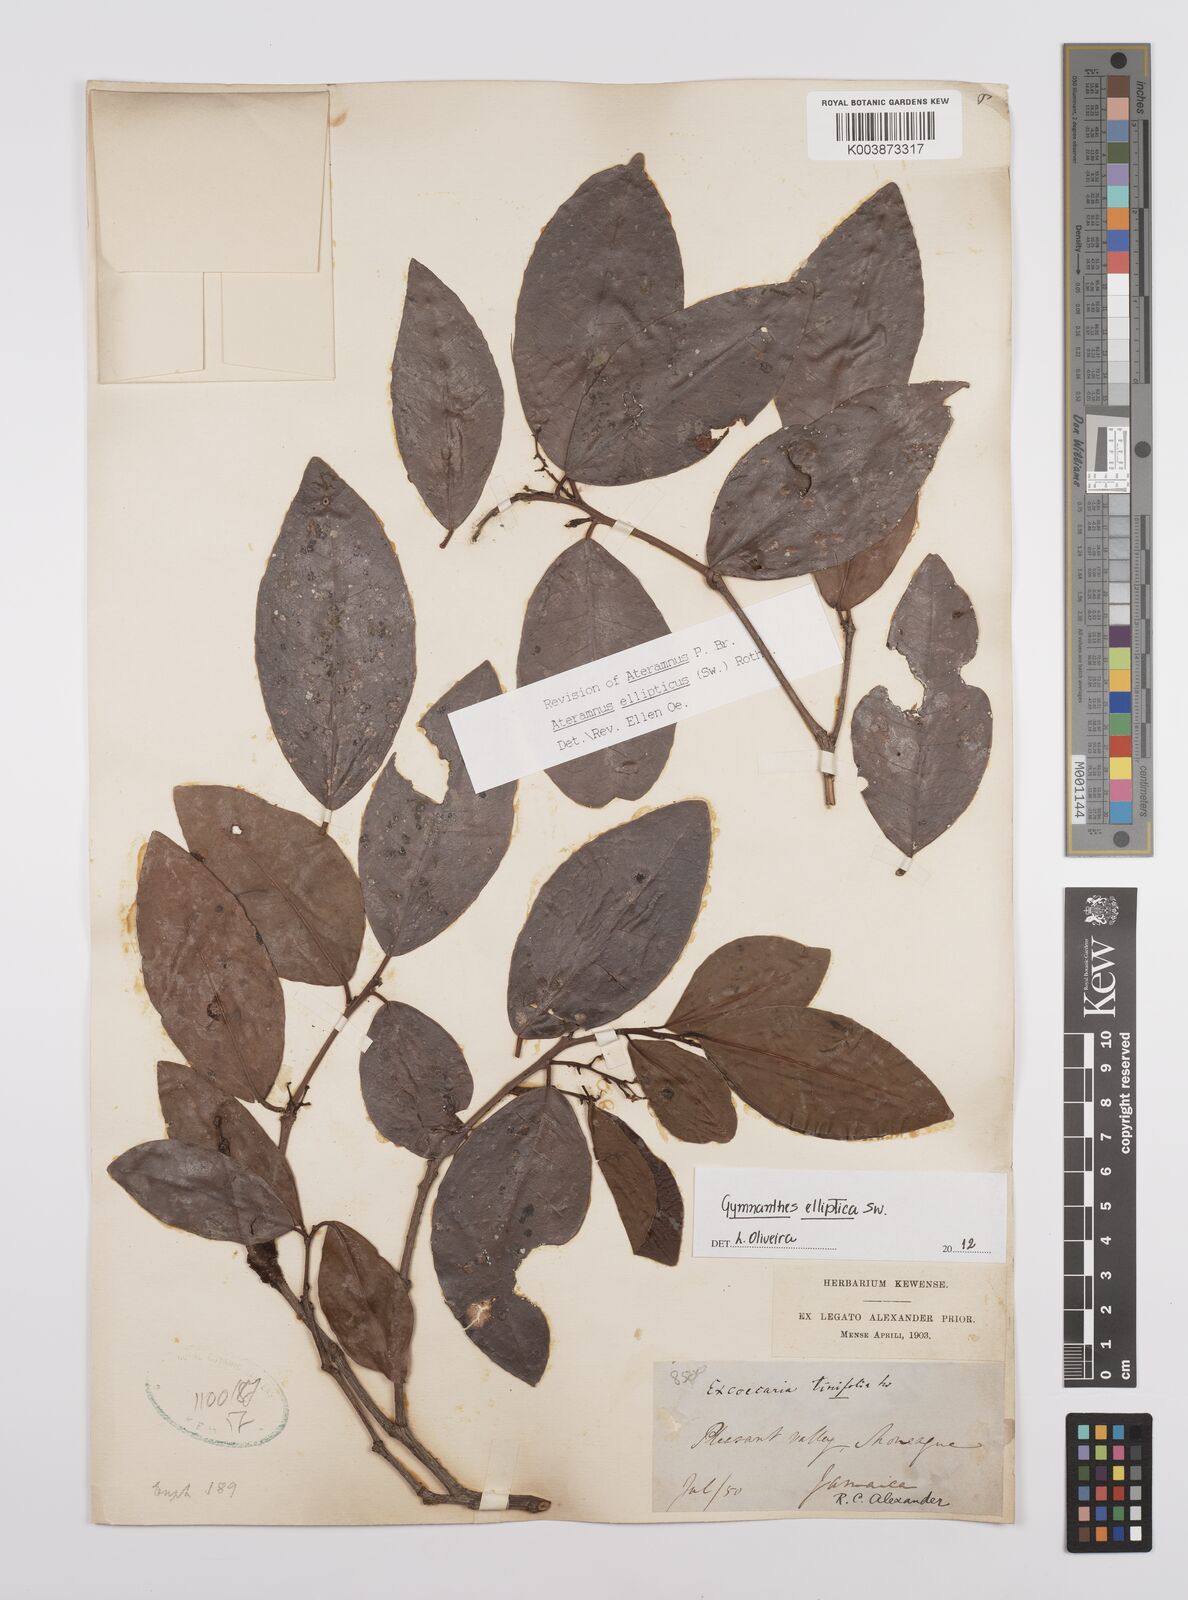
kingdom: Plantae
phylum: Tracheophyta
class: Magnoliopsida
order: Malpighiales
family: Euphorbiaceae
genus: Dendrocousinsia
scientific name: Dendrocousinsia elliptica
